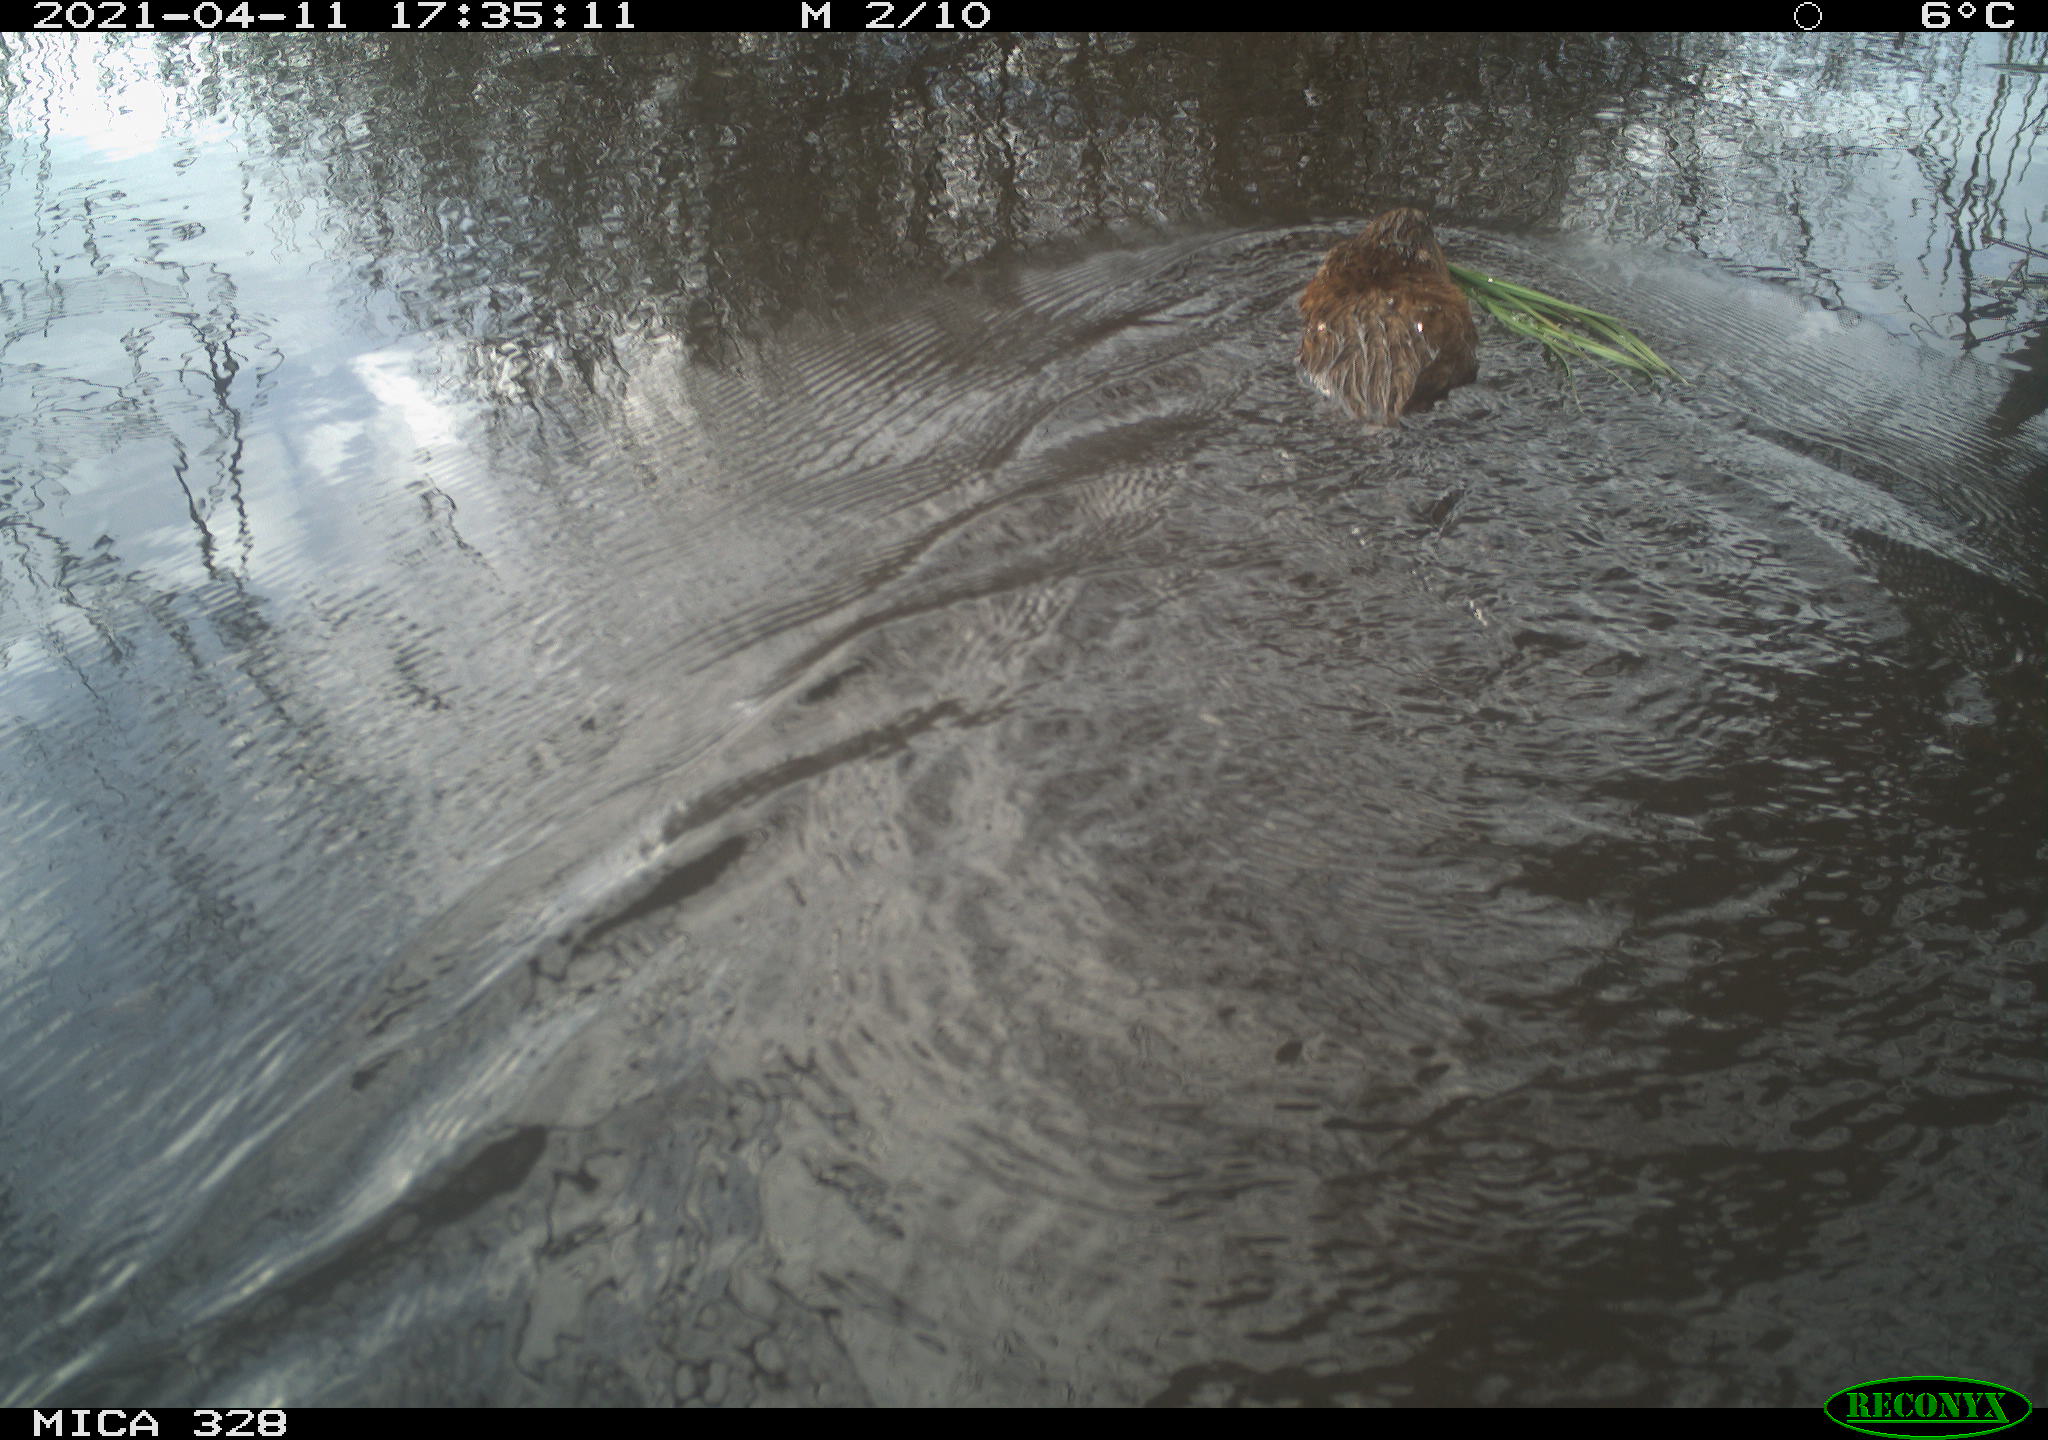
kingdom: Animalia
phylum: Chordata
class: Mammalia
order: Rodentia
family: Cricetidae
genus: Ondatra
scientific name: Ondatra zibethicus
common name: Muskrat
